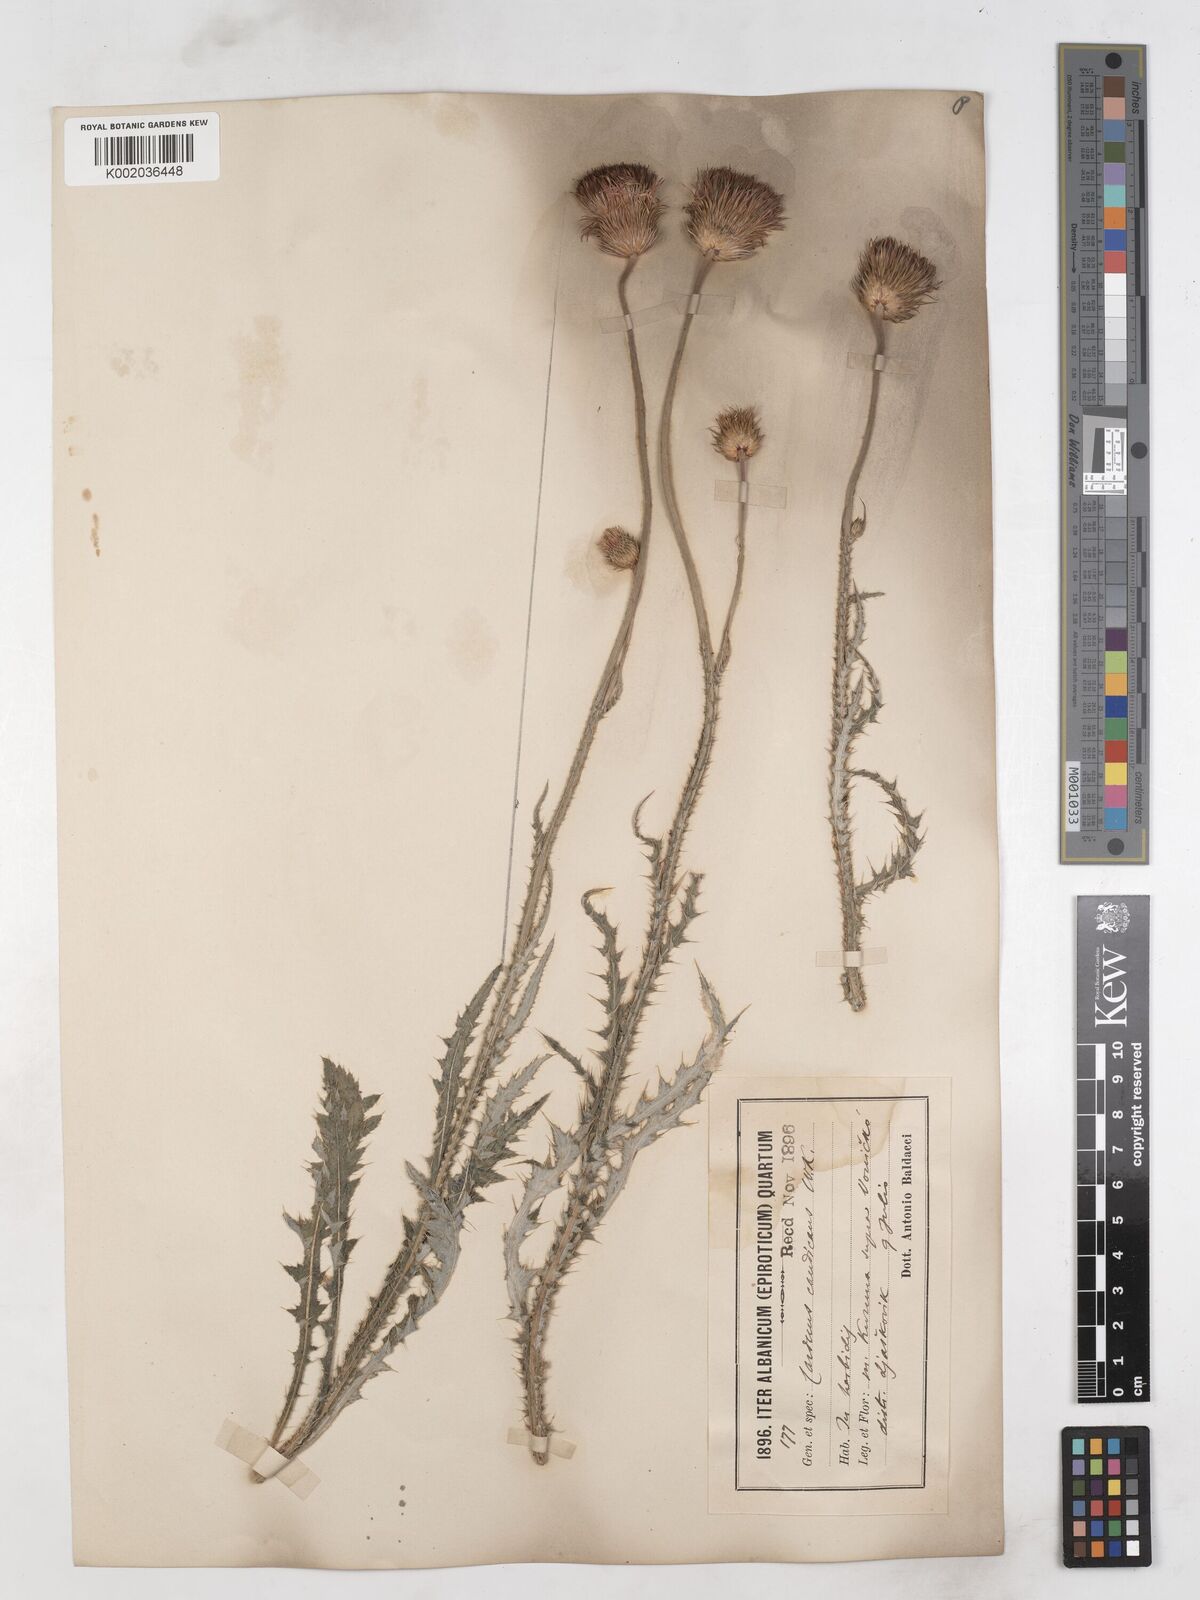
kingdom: Plantae
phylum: Tracheophyta
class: Magnoliopsida
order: Asterales
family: Asteraceae
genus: Carduus
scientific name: Carduus candicans
